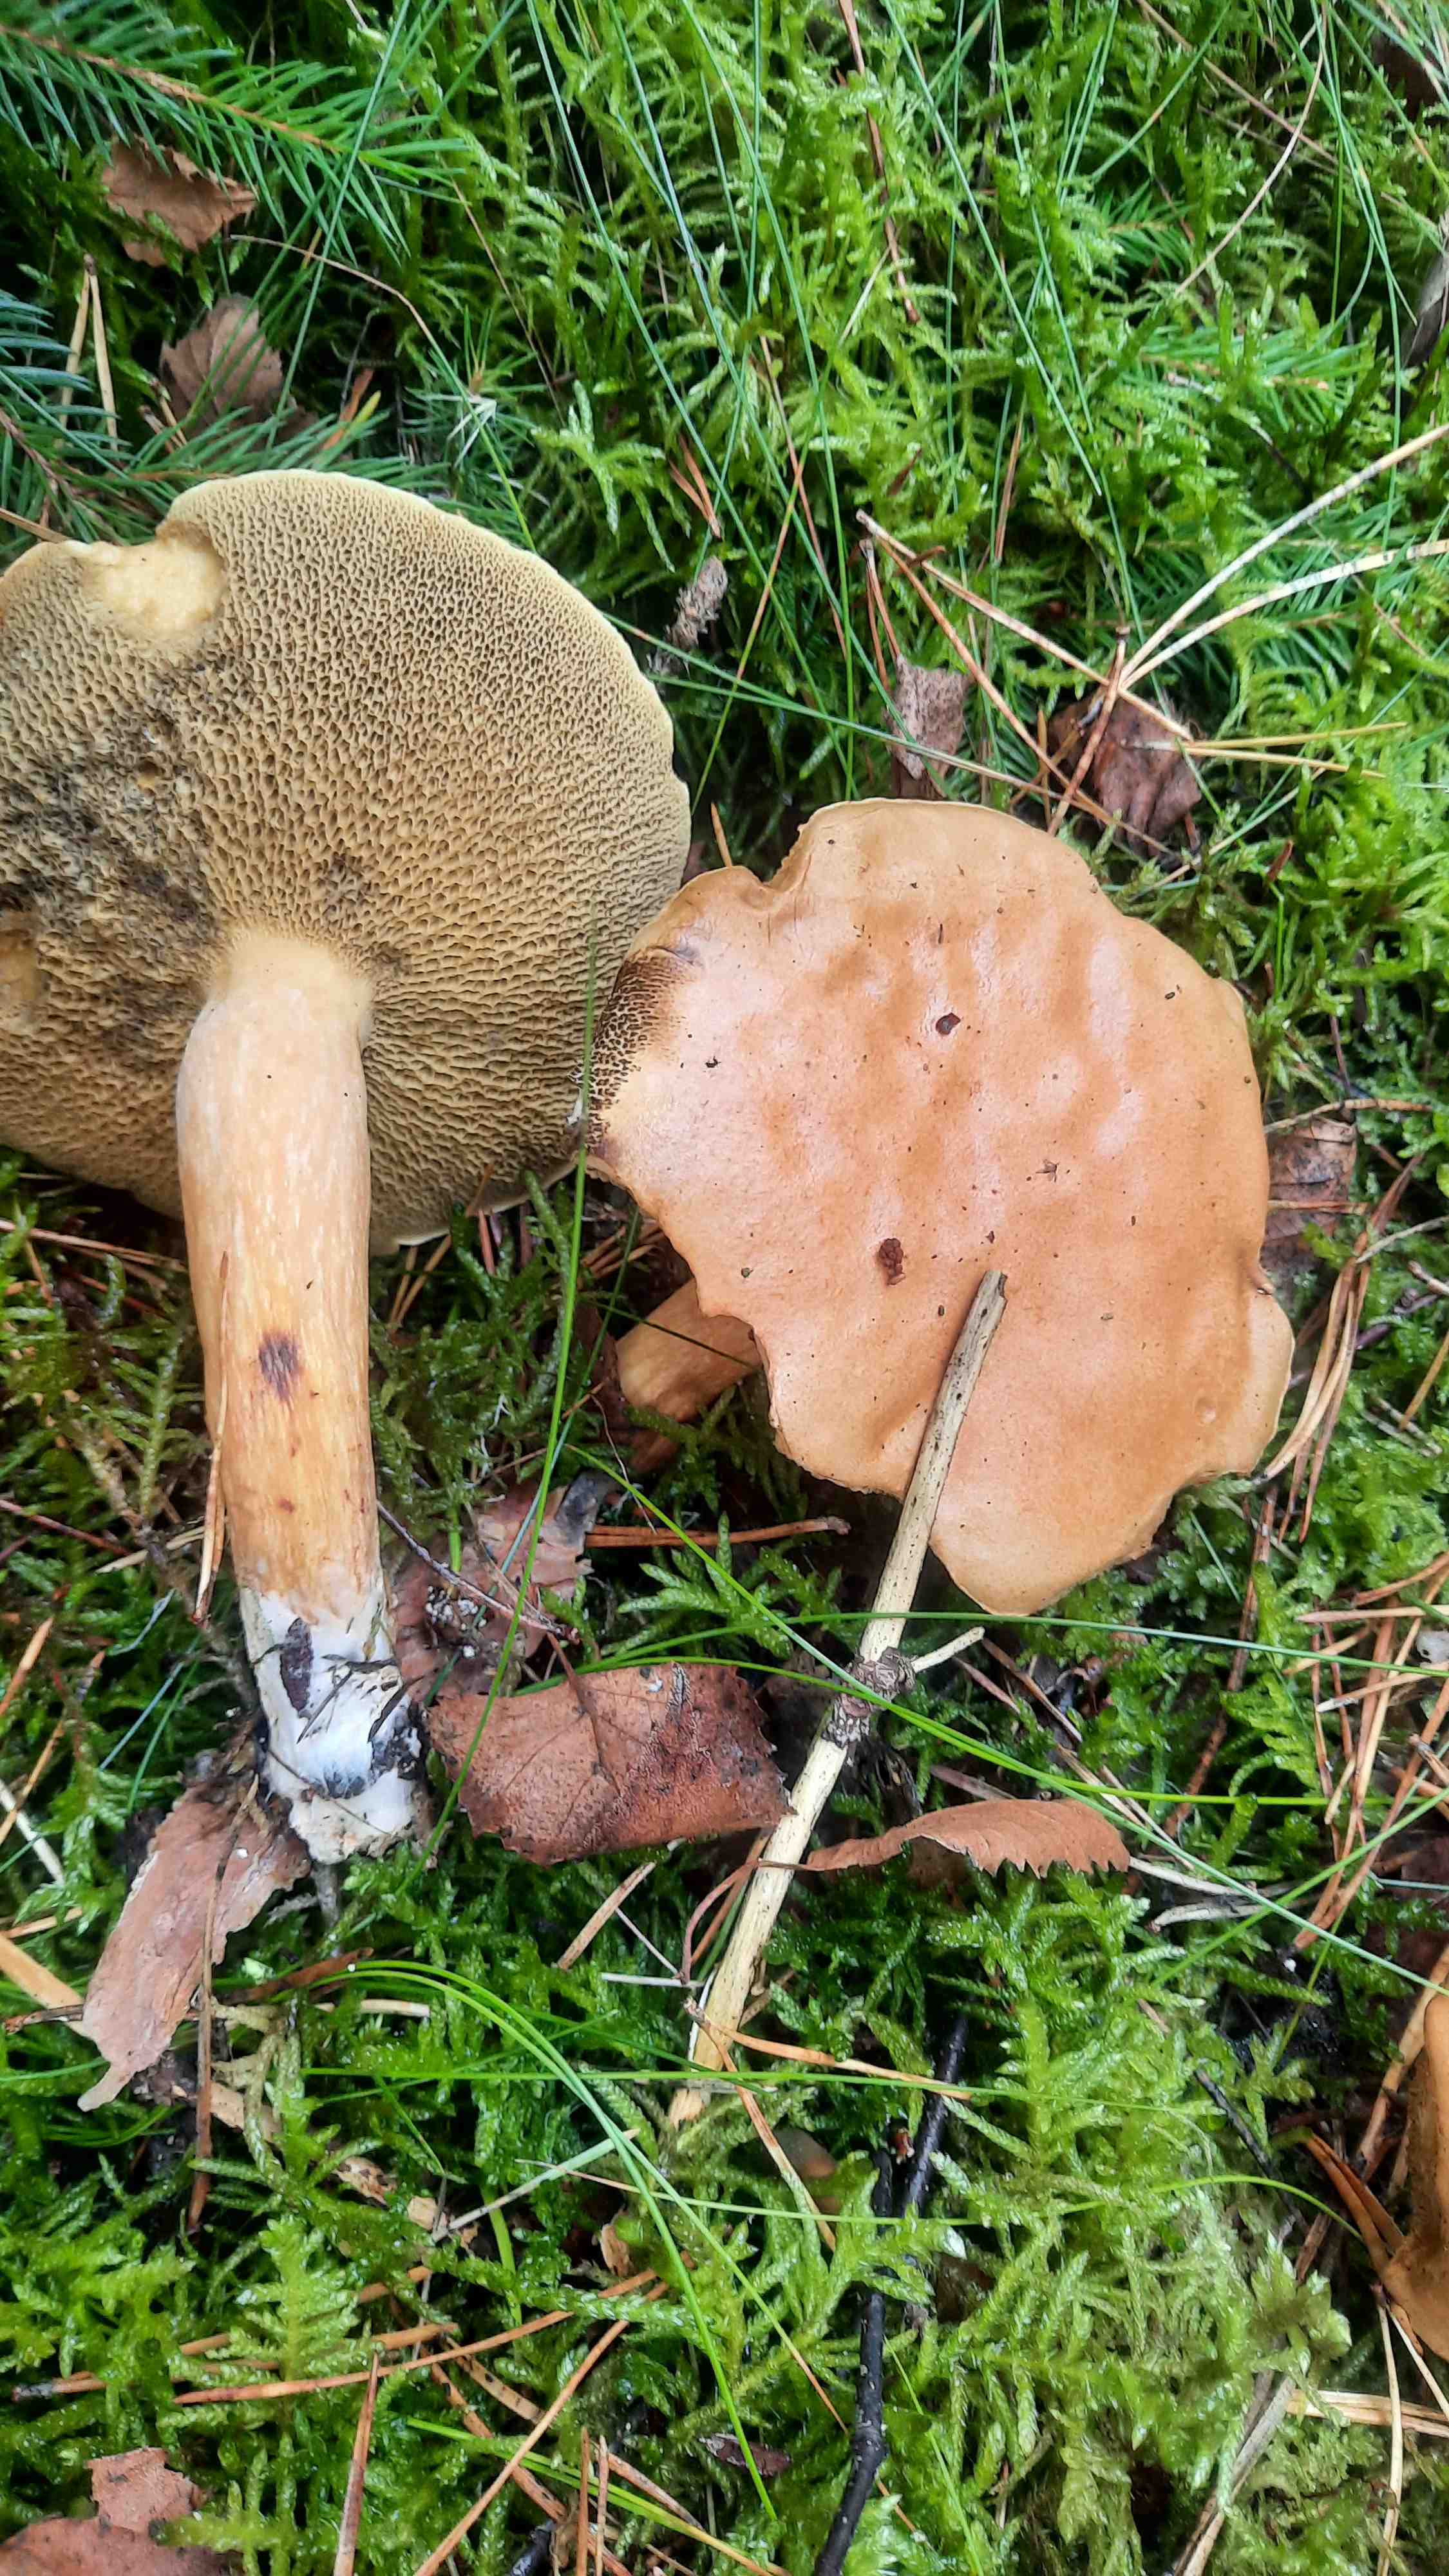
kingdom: Fungi
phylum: Basidiomycota
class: Agaricomycetes
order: Boletales
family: Suillaceae
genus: Suillus
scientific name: Suillus bovinus
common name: grovporet slimrørhat
